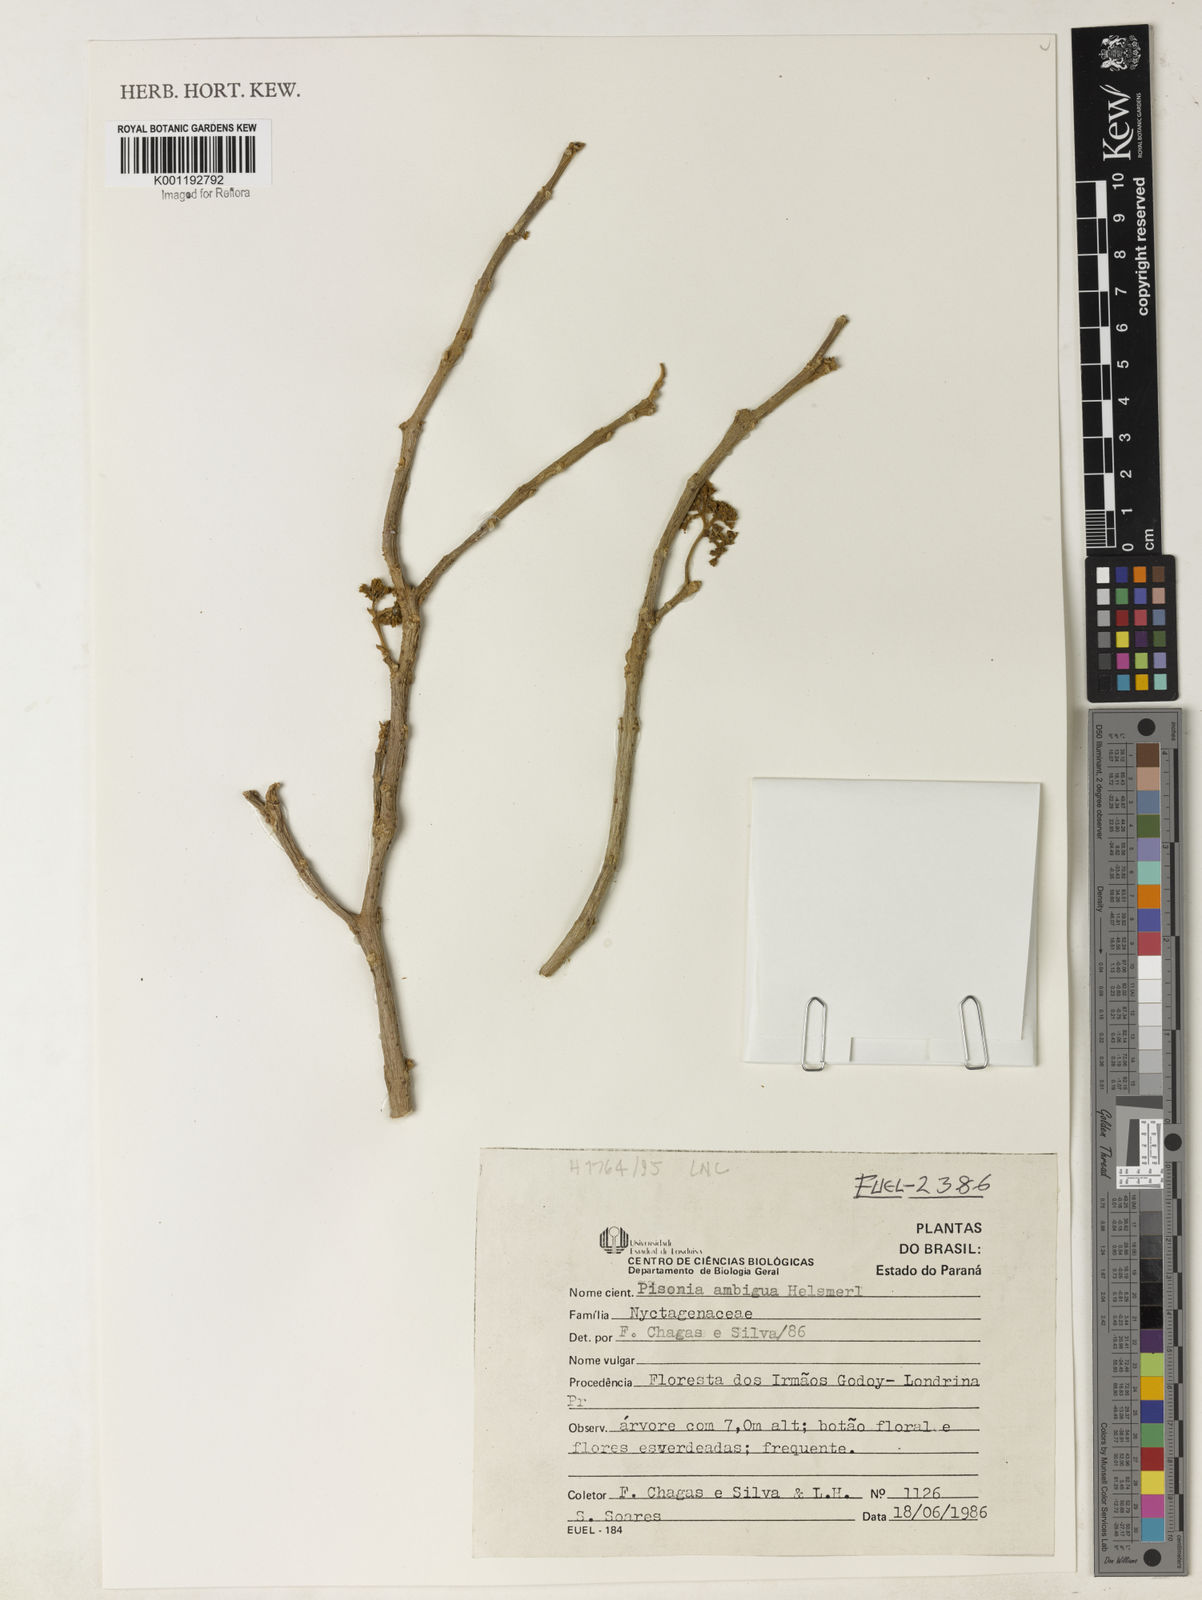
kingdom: Plantae
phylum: Tracheophyta
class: Magnoliopsida
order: Caryophyllales
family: Nyctaginaceae
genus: Pisonia
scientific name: Pisonia ambigua
